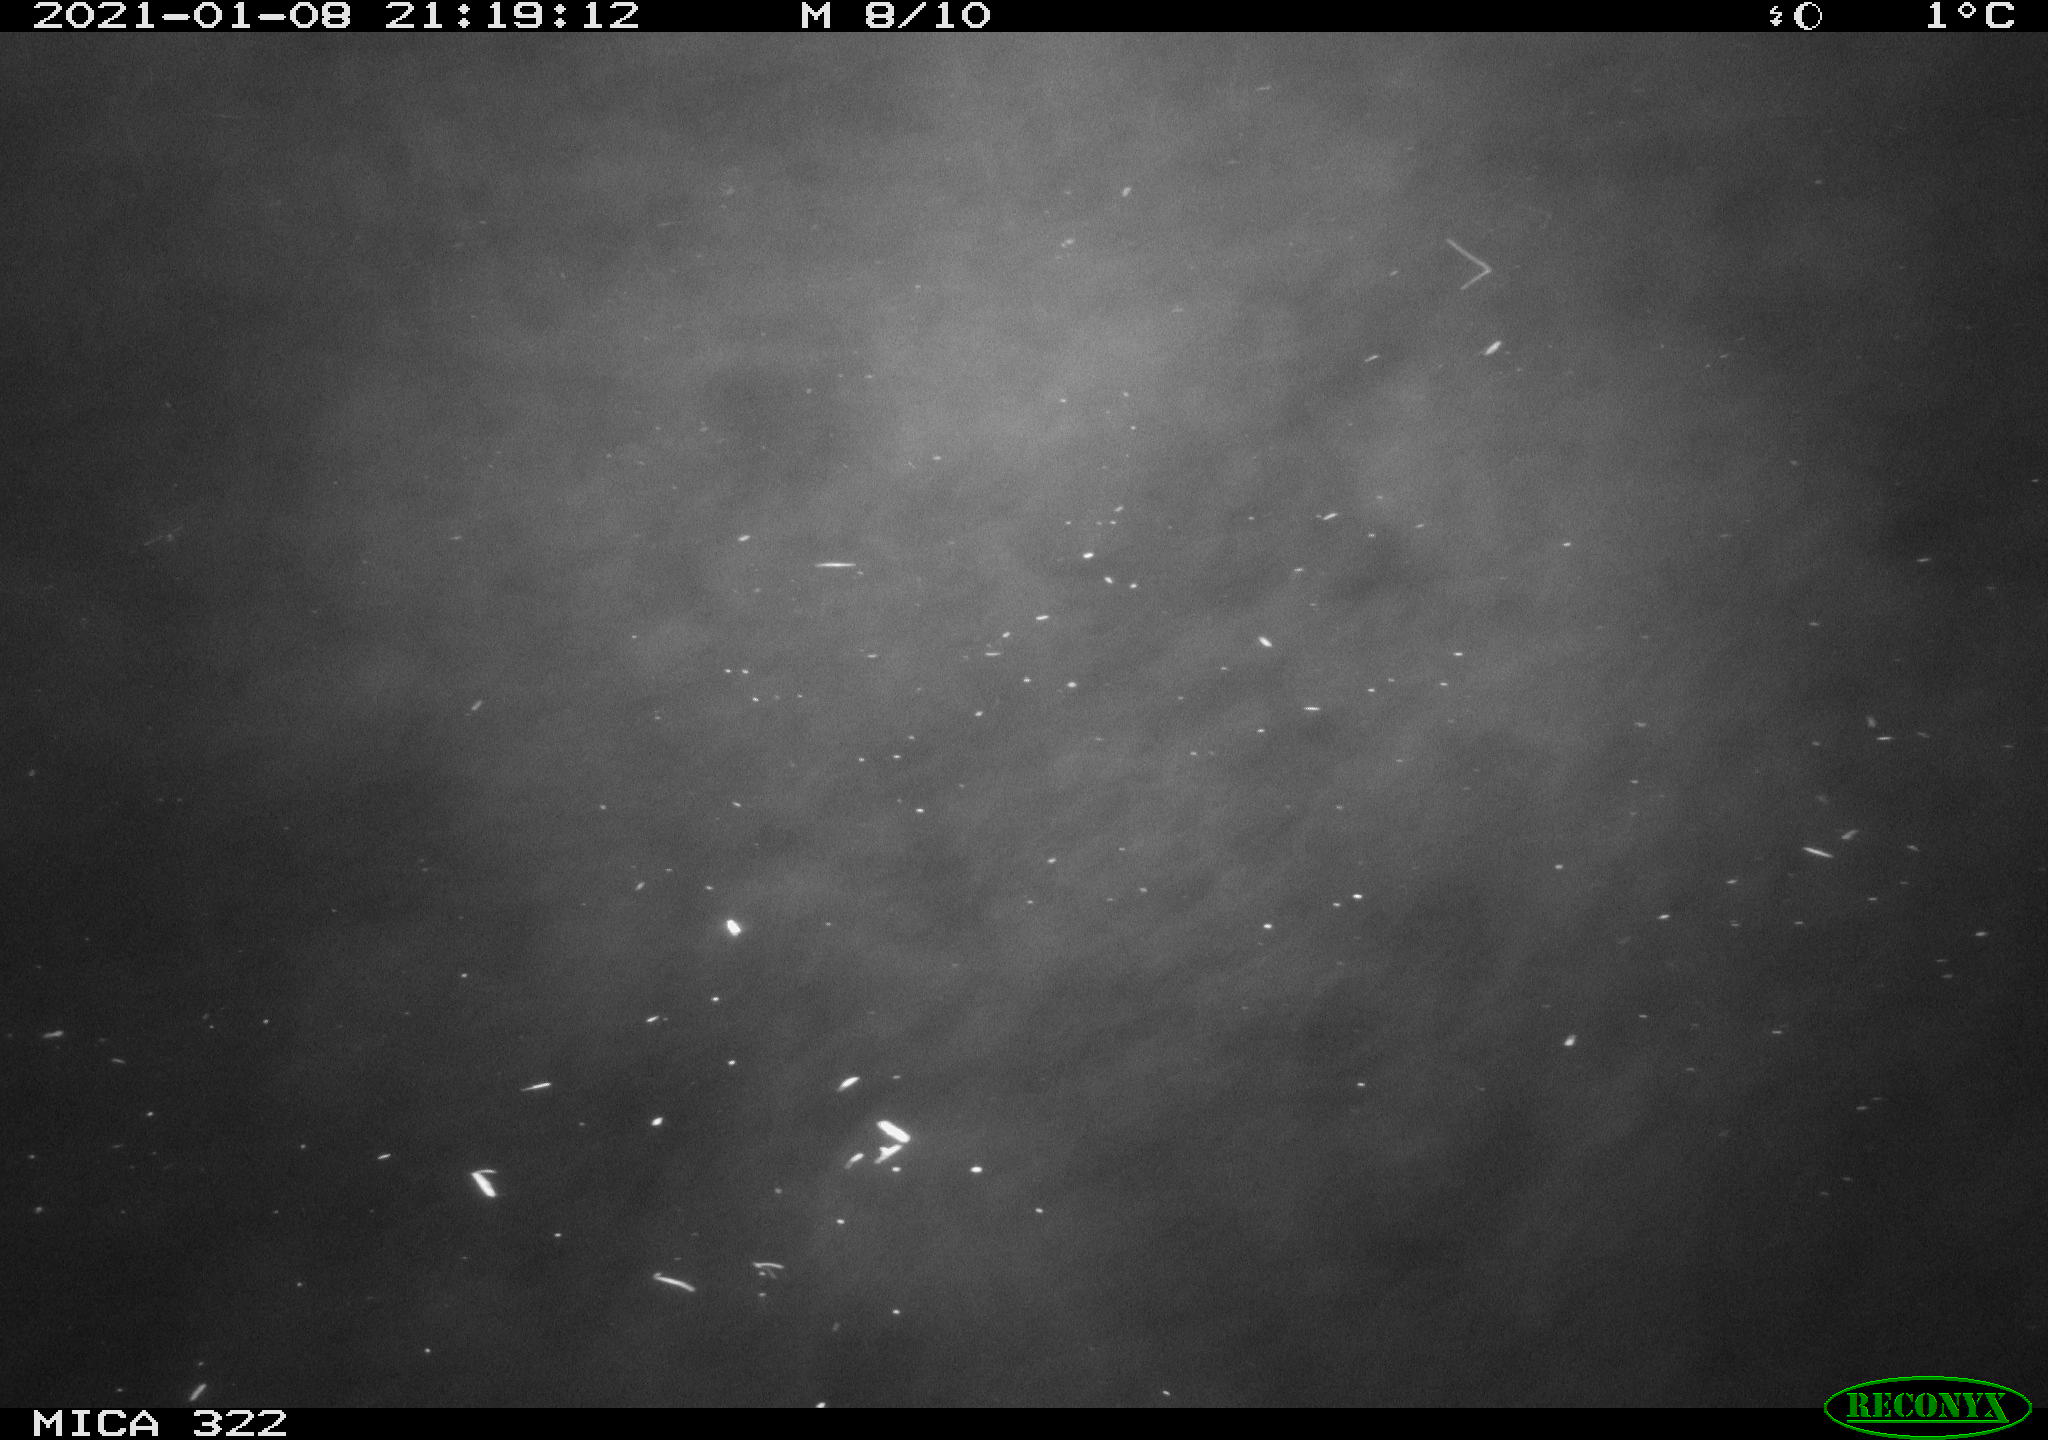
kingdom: Animalia
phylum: Chordata
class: Aves
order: Anseriformes
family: Anatidae
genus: Anas
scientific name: Anas crecca
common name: Eurasian teal
